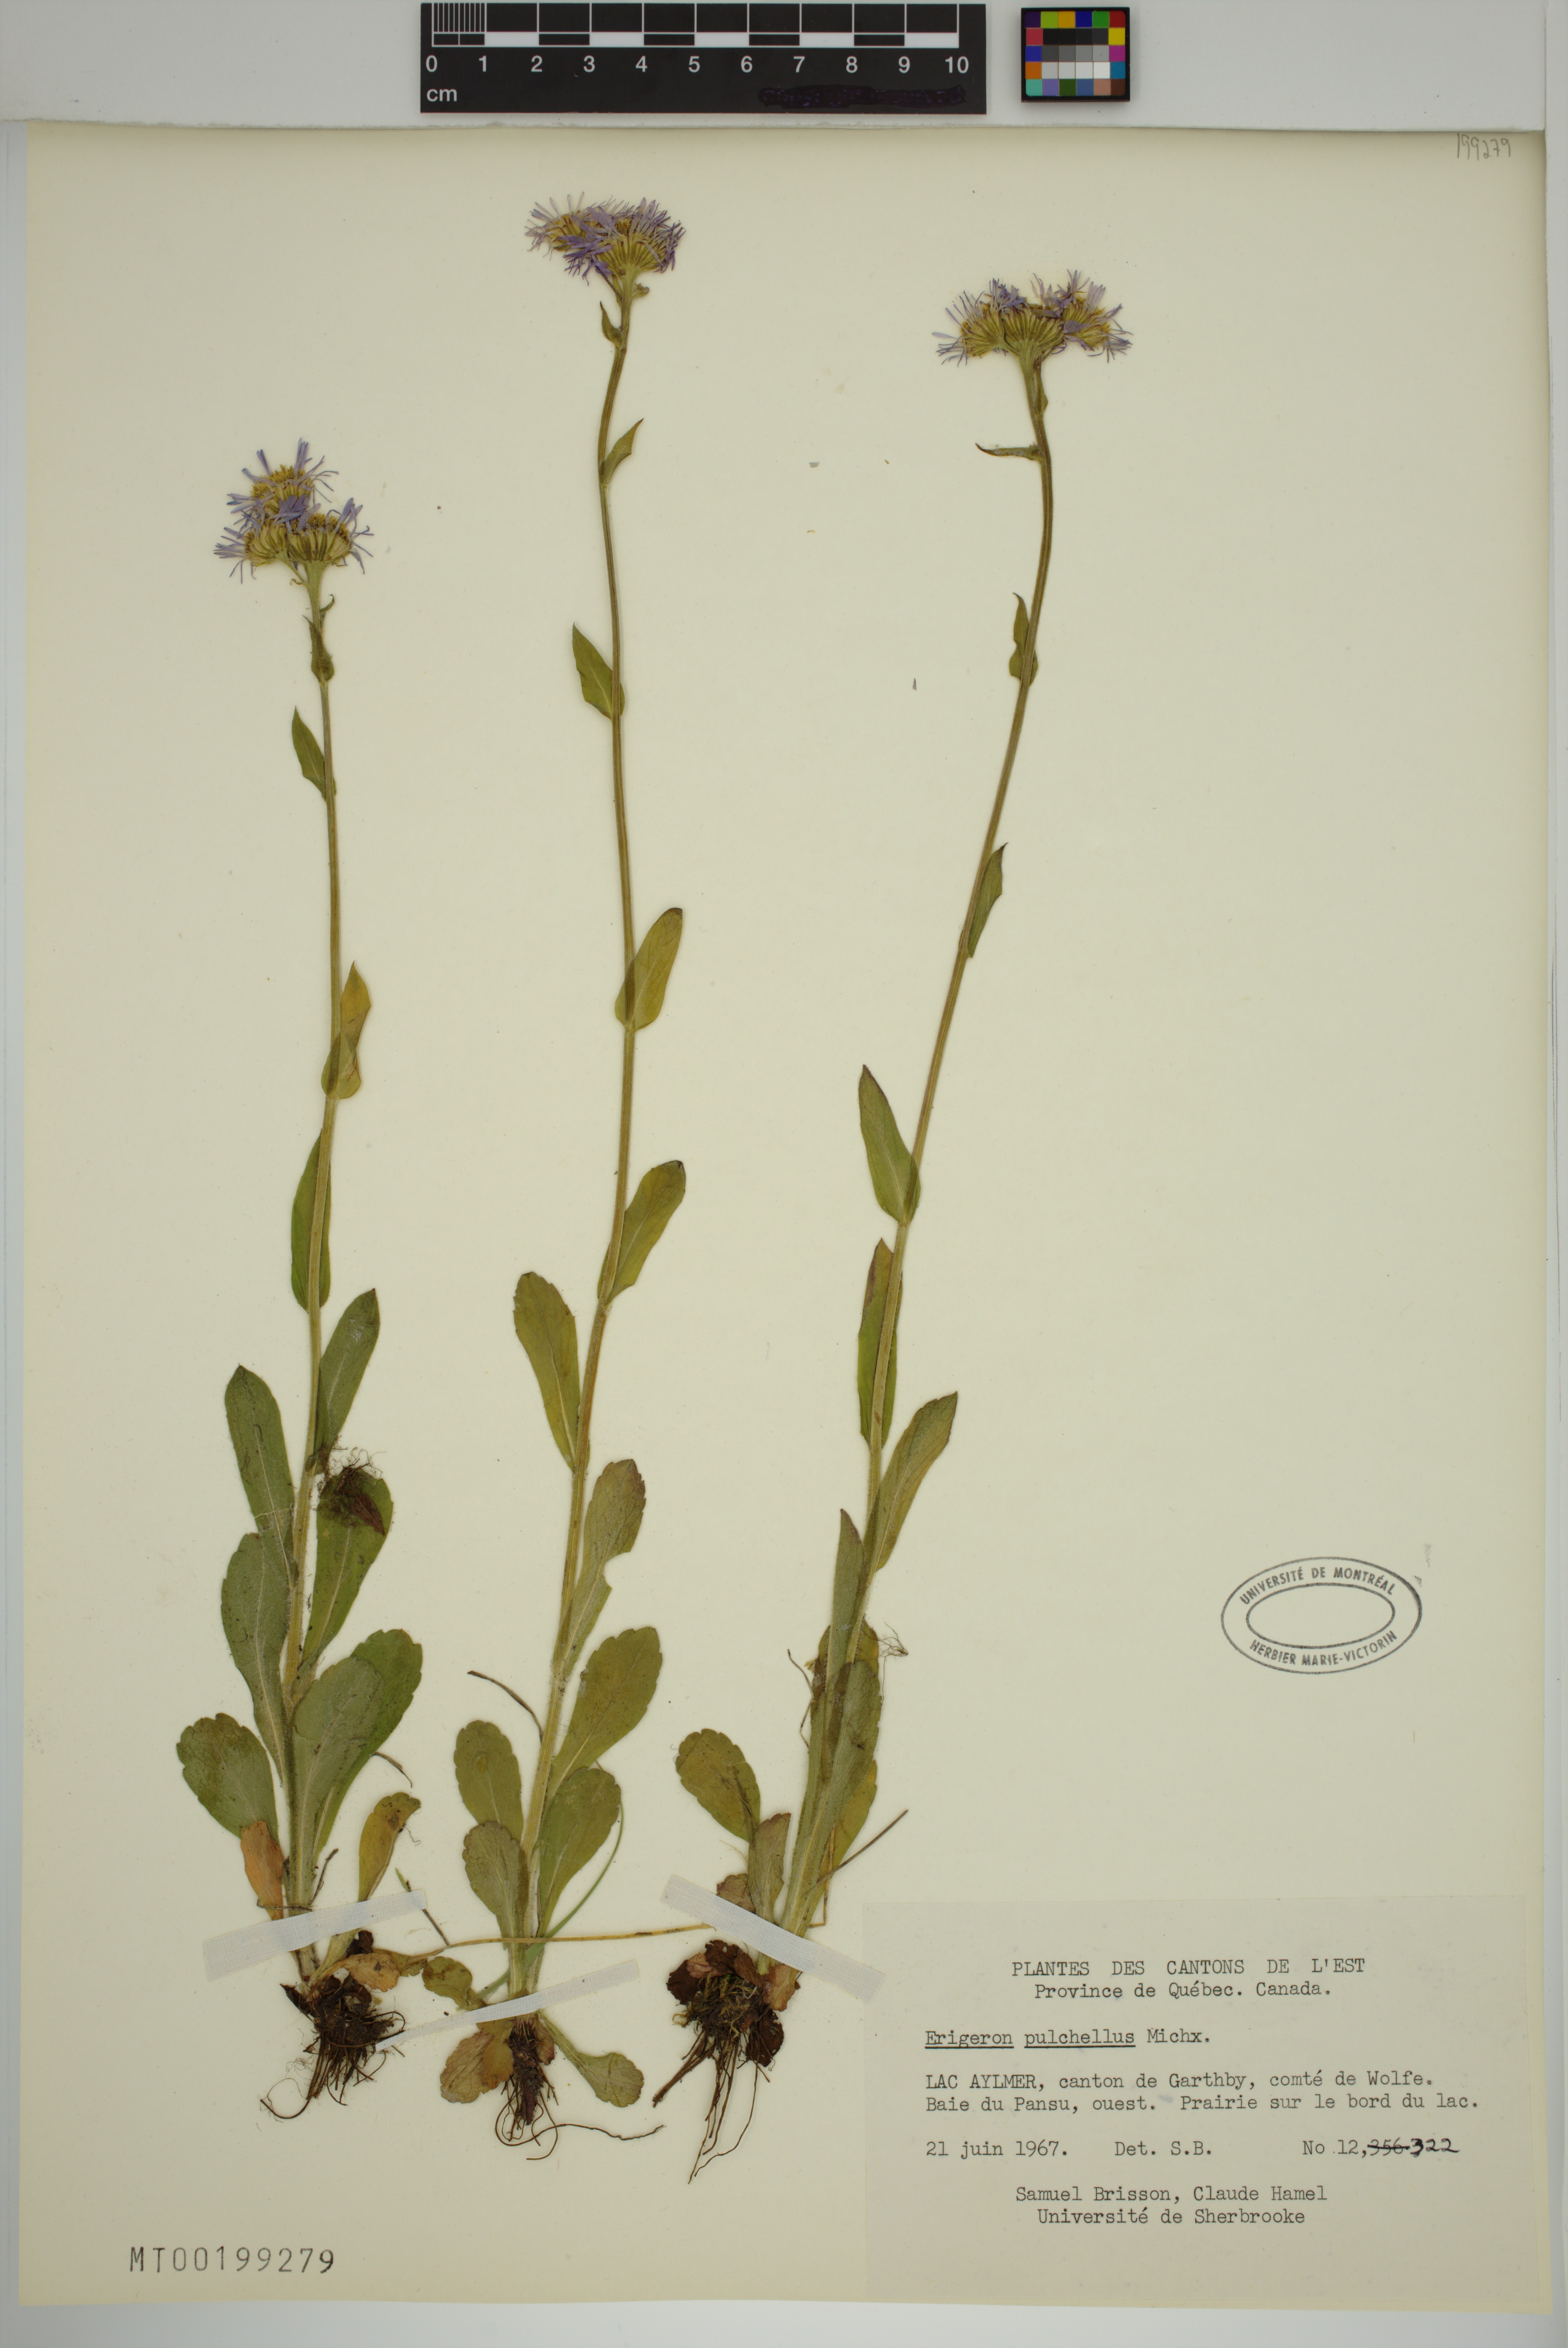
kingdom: Plantae
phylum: Tracheophyta
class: Magnoliopsida
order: Asterales
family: Asteraceae
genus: Erigeron
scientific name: Erigeron pulchellus
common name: Hairy fleabane
